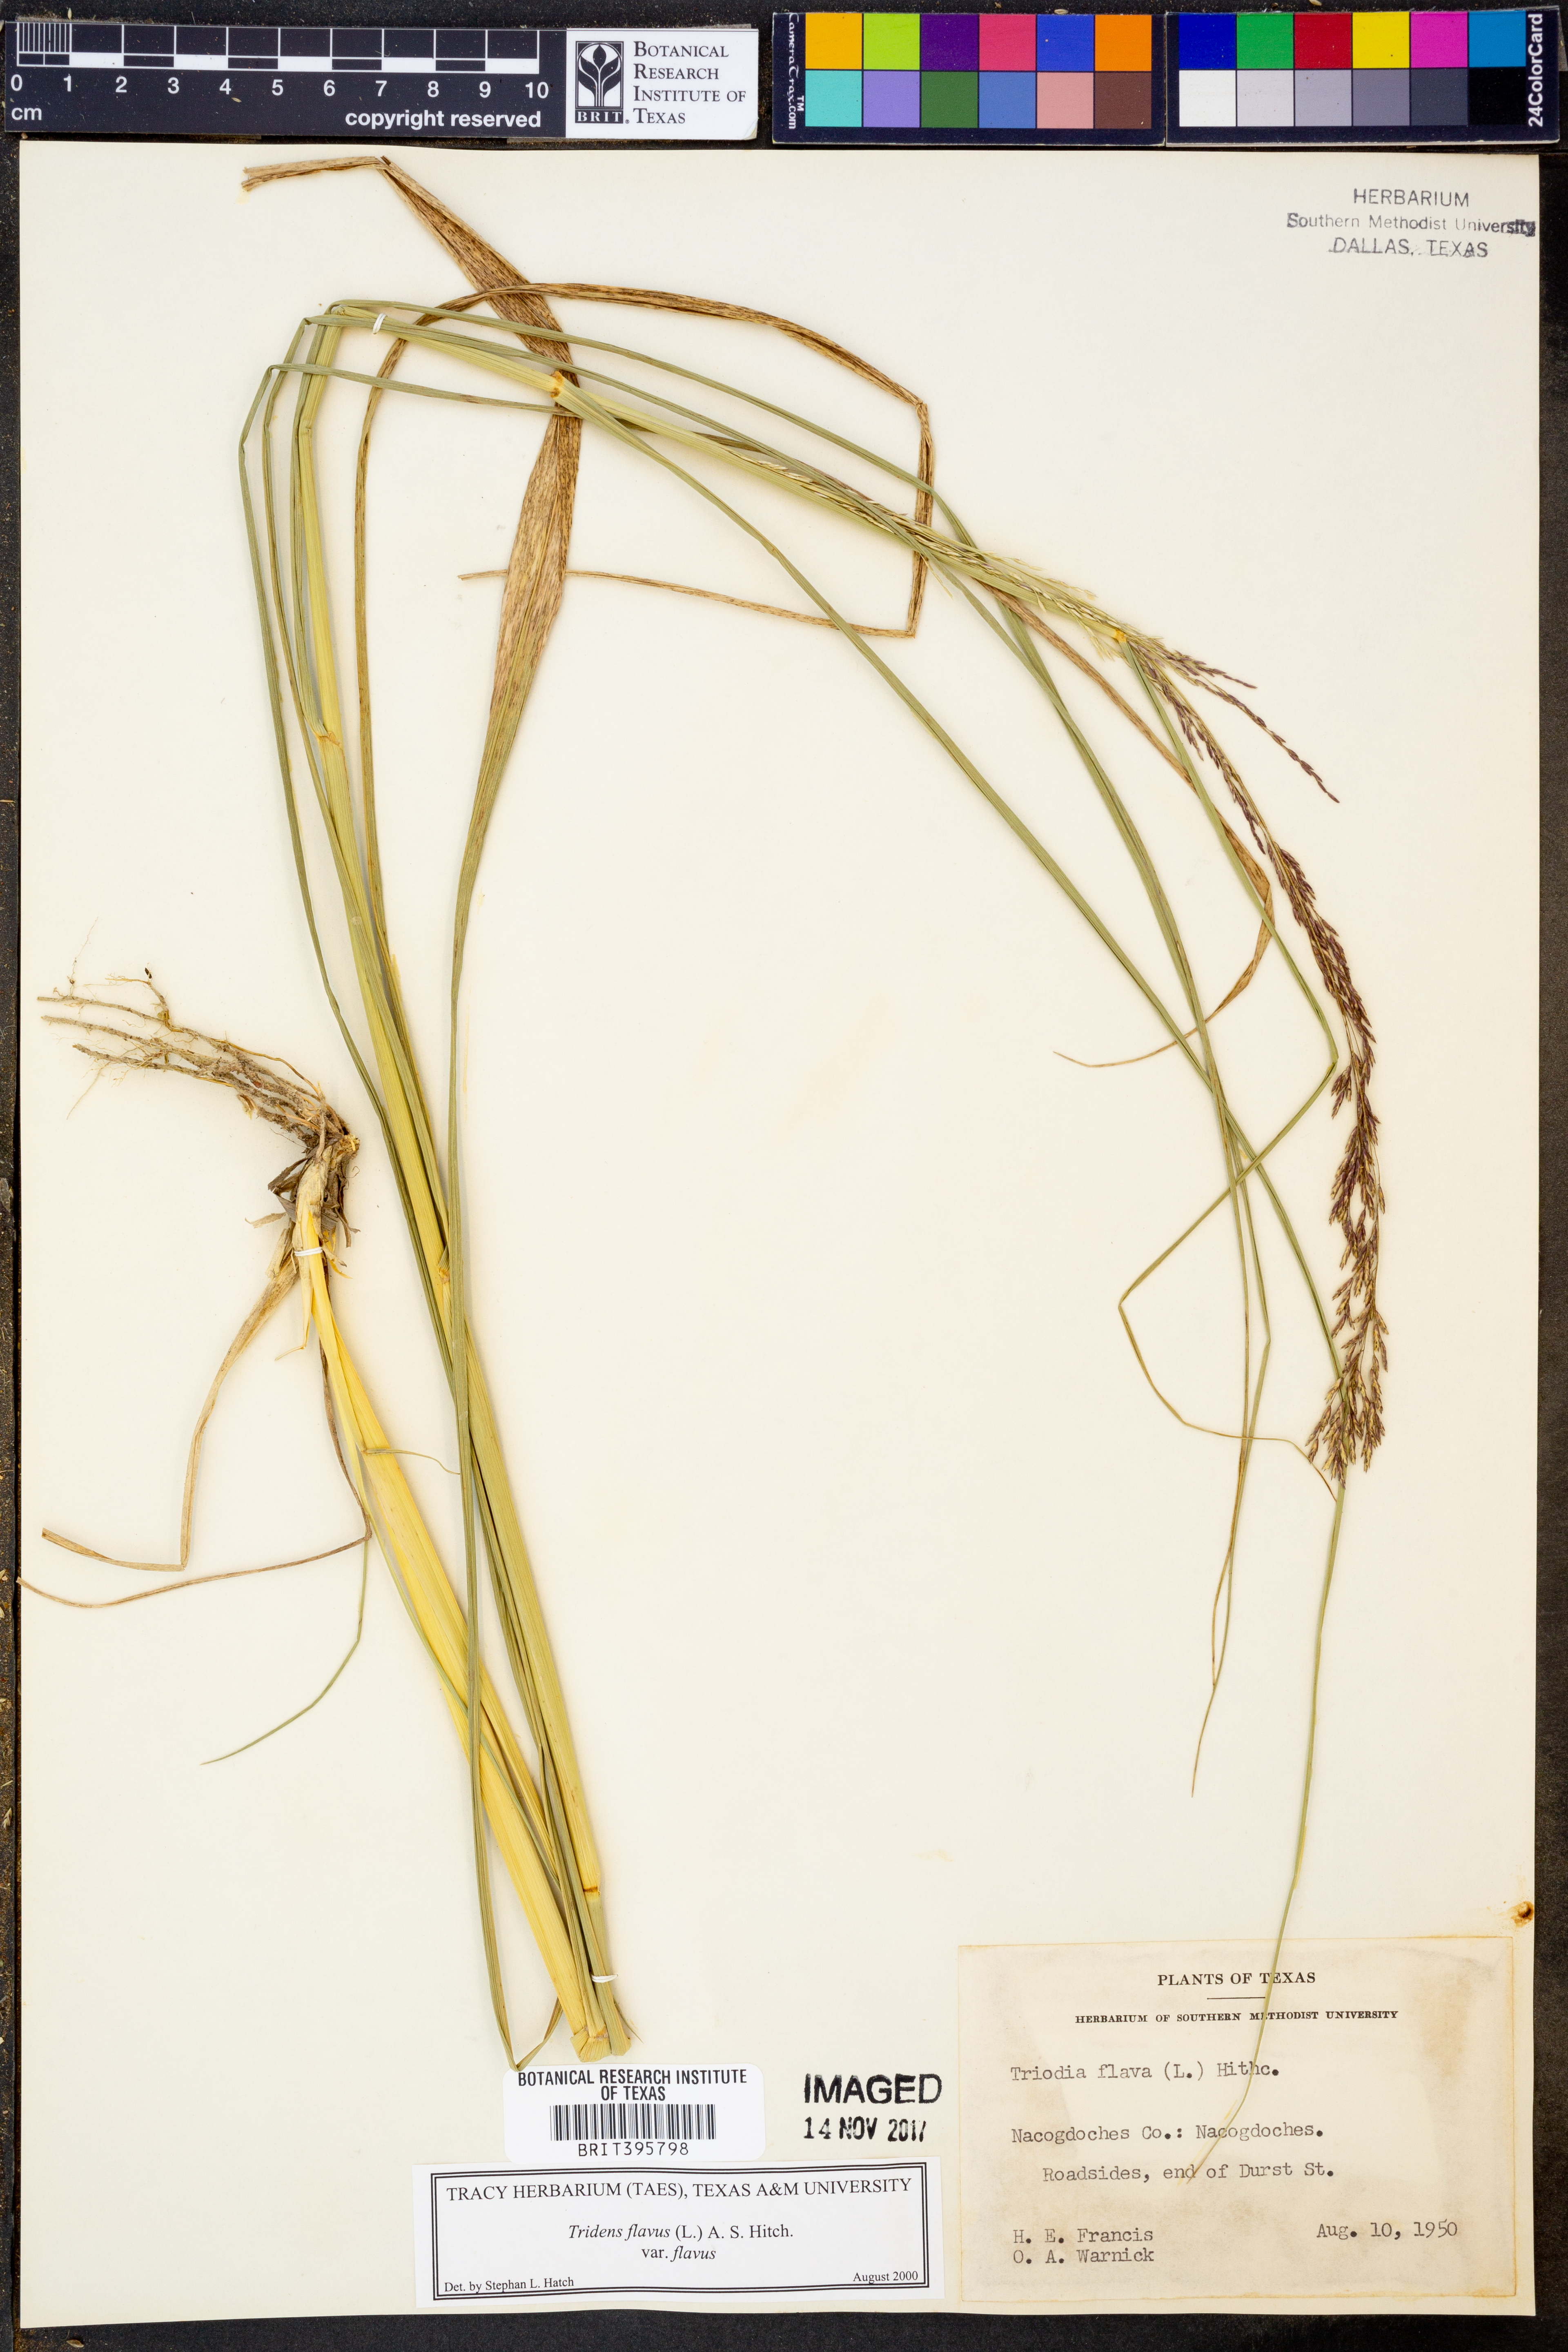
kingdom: Plantae
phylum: Tracheophyta
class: Liliopsida
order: Poales
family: Poaceae
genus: Tridens
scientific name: Tridens flavus
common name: Purpletop
